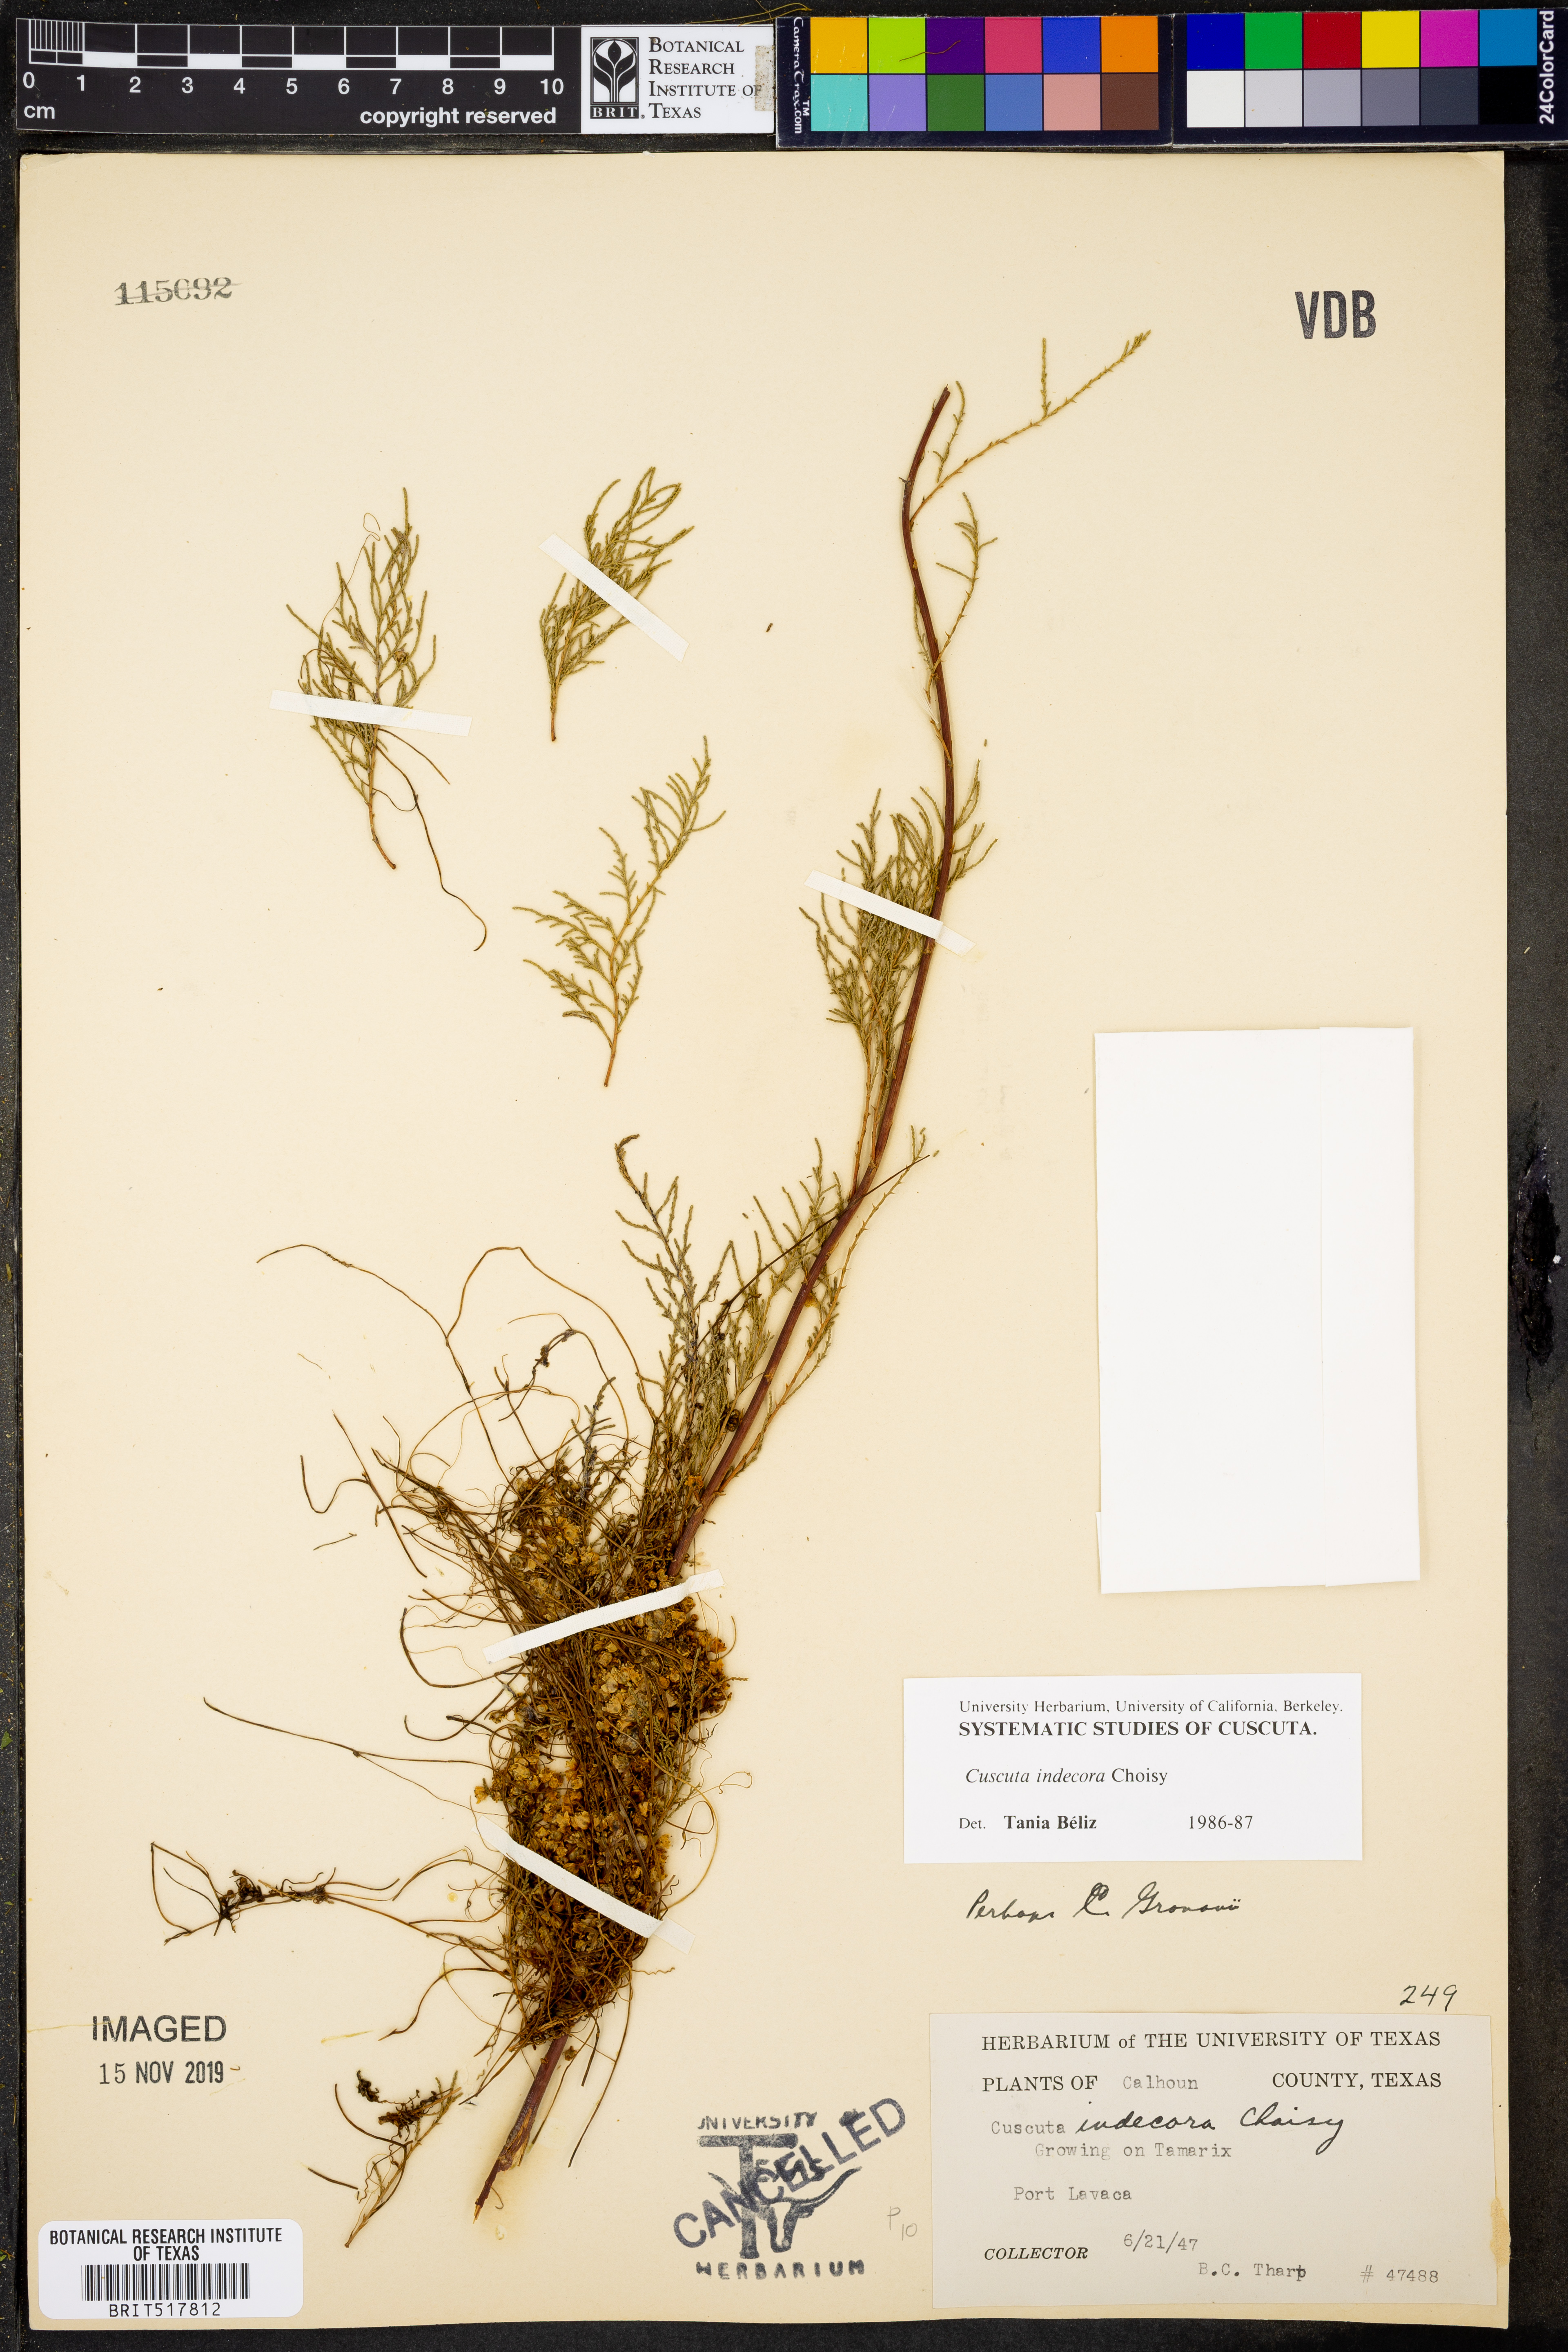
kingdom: Plantae
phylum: Tracheophyta
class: Magnoliopsida
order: Solanales
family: Convolvulaceae
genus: Cuscuta
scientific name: Cuscuta indecora
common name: Large-seed dodder
